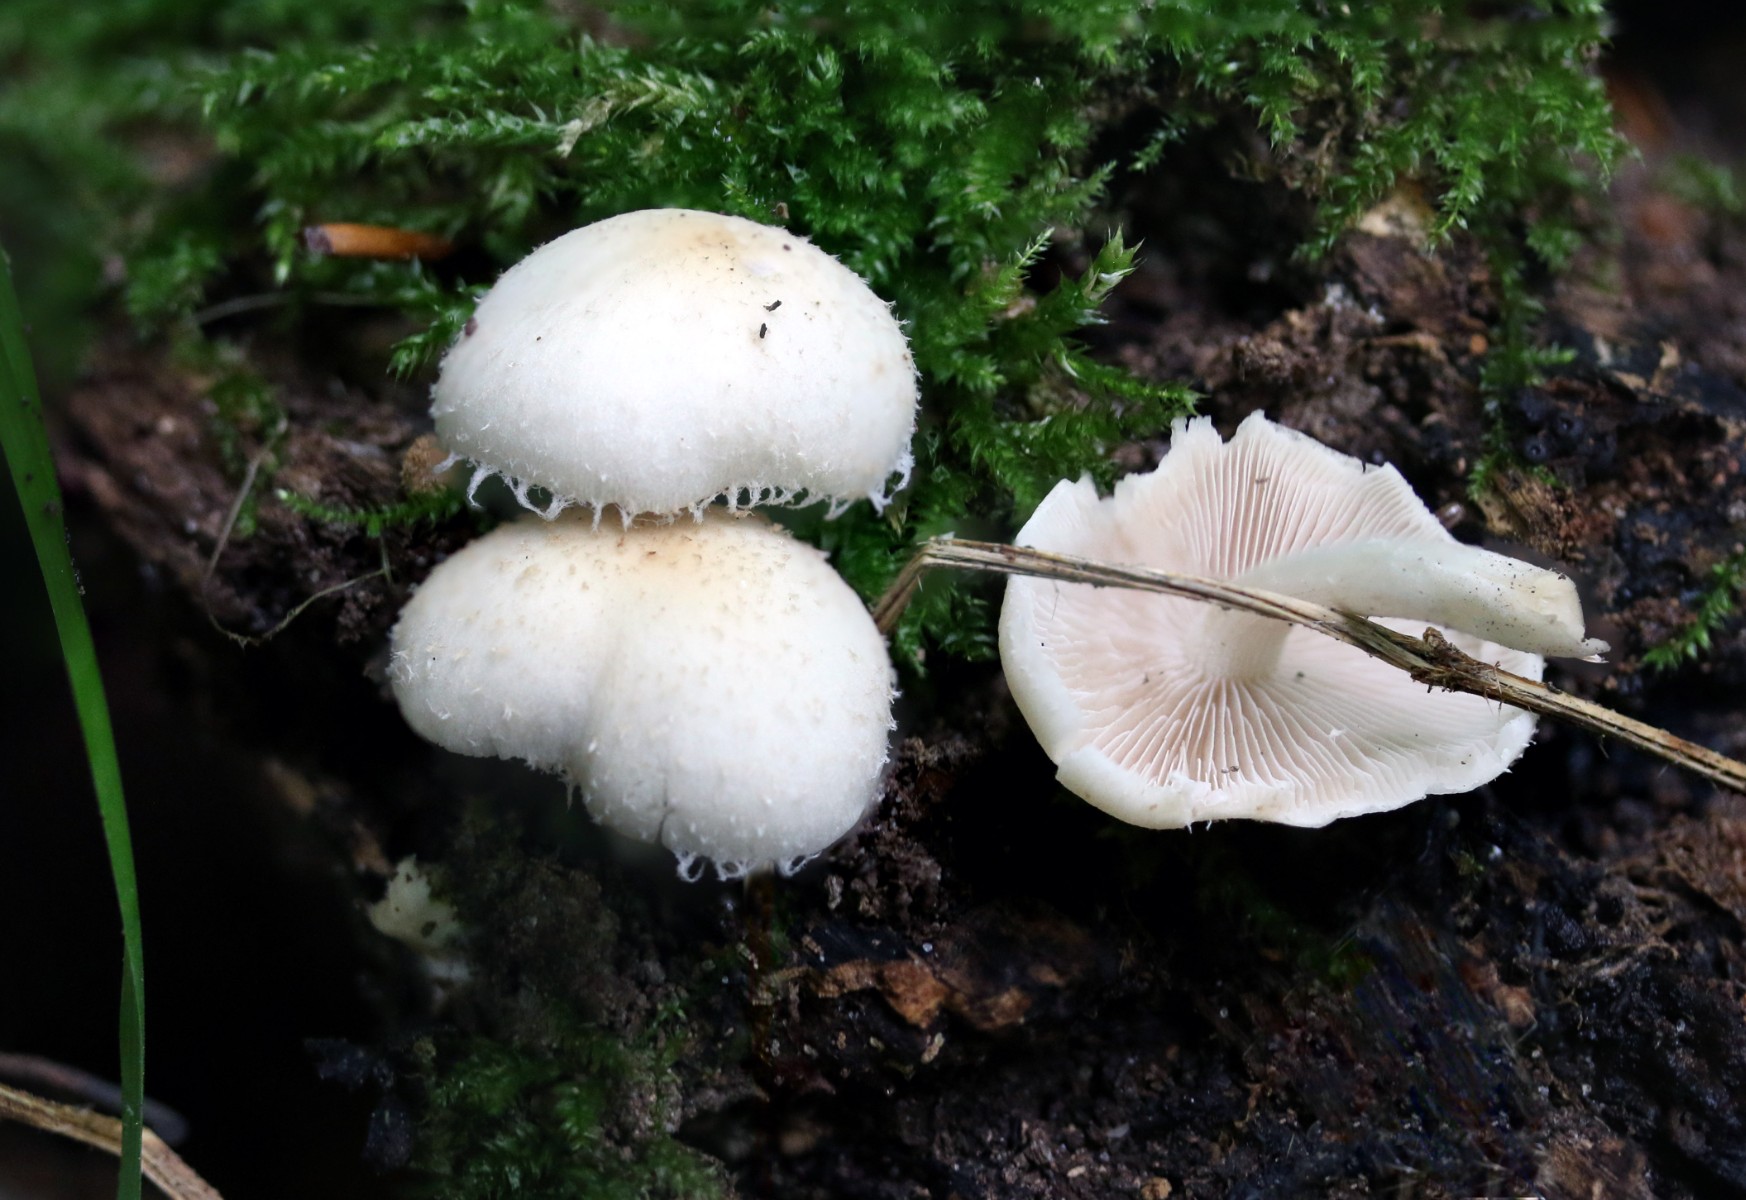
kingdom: Fungi
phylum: Basidiomycota
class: Agaricomycetes
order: Agaricales
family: Psathyrellaceae
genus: Candolleomyces
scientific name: Candolleomyces candolleanus
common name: Candolles mørkhat
